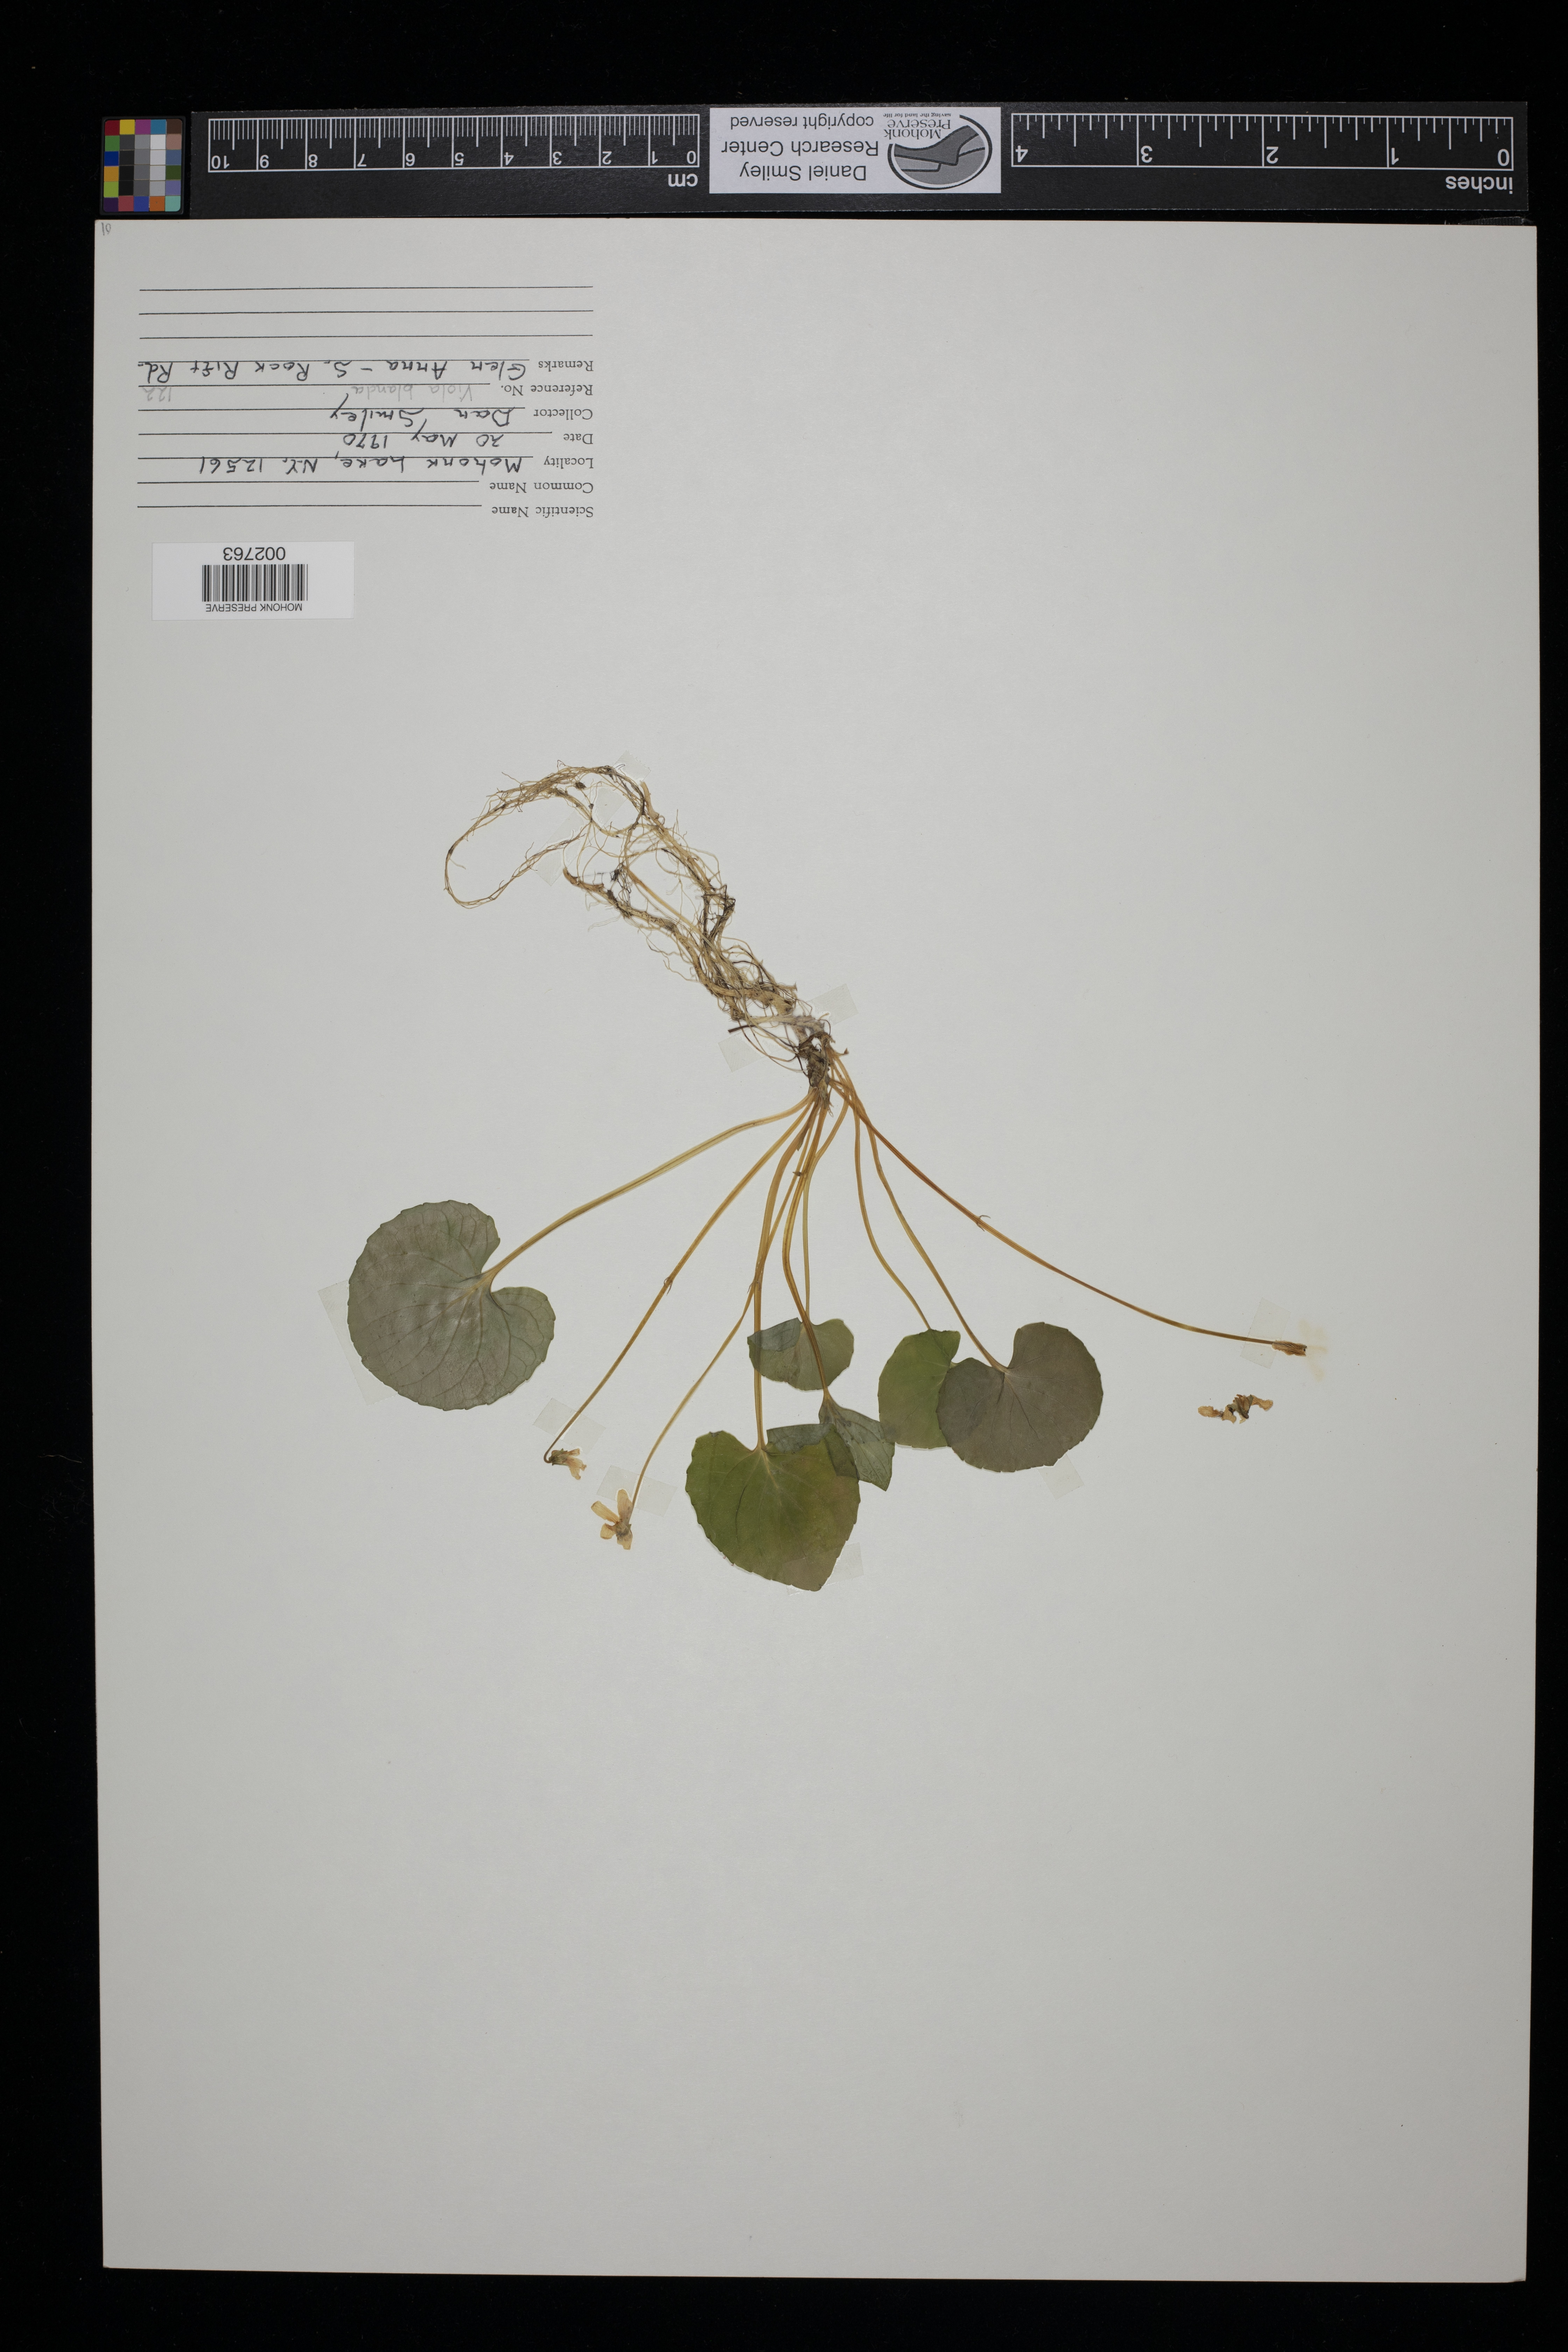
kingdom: Plantae
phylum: Tracheophyta
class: Magnoliopsida
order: Malpighiales
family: Violaceae
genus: Viola
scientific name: Viola blanda
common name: Sweet white violet
